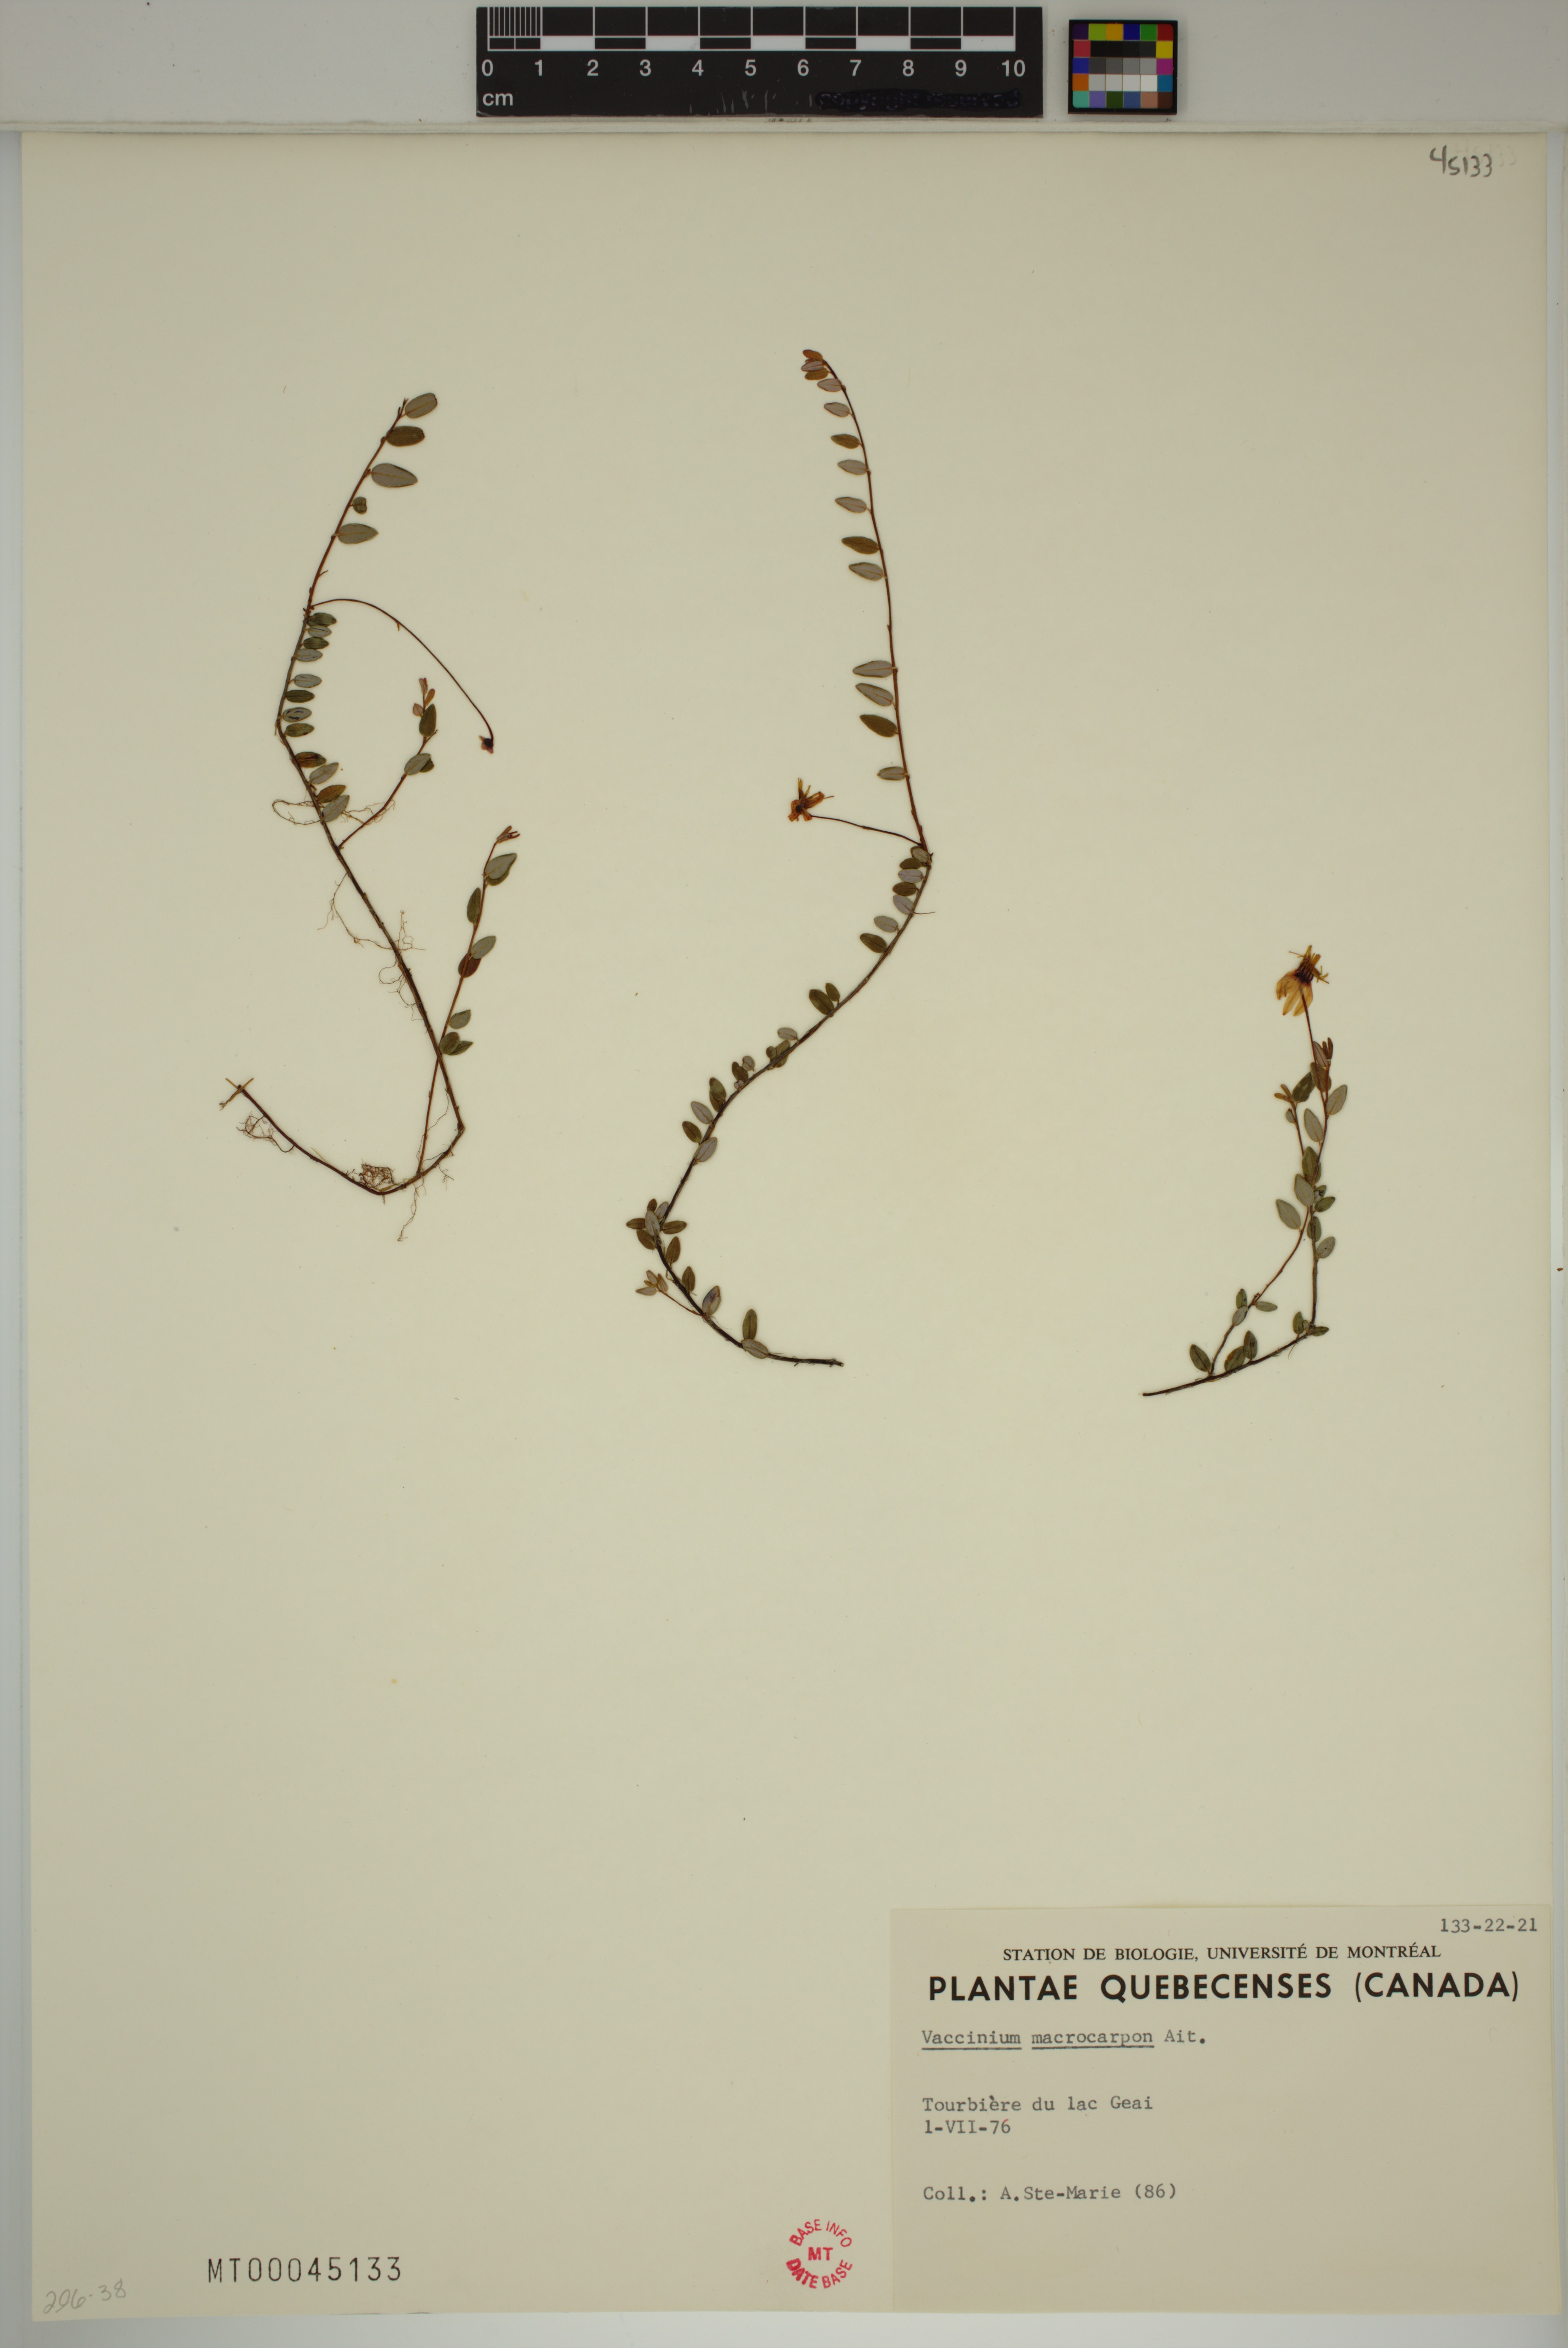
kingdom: Plantae
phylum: Tracheophyta
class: Magnoliopsida
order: Ericales
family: Ericaceae
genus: Vaccinium
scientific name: Vaccinium macrocarpon
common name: American cranberry
